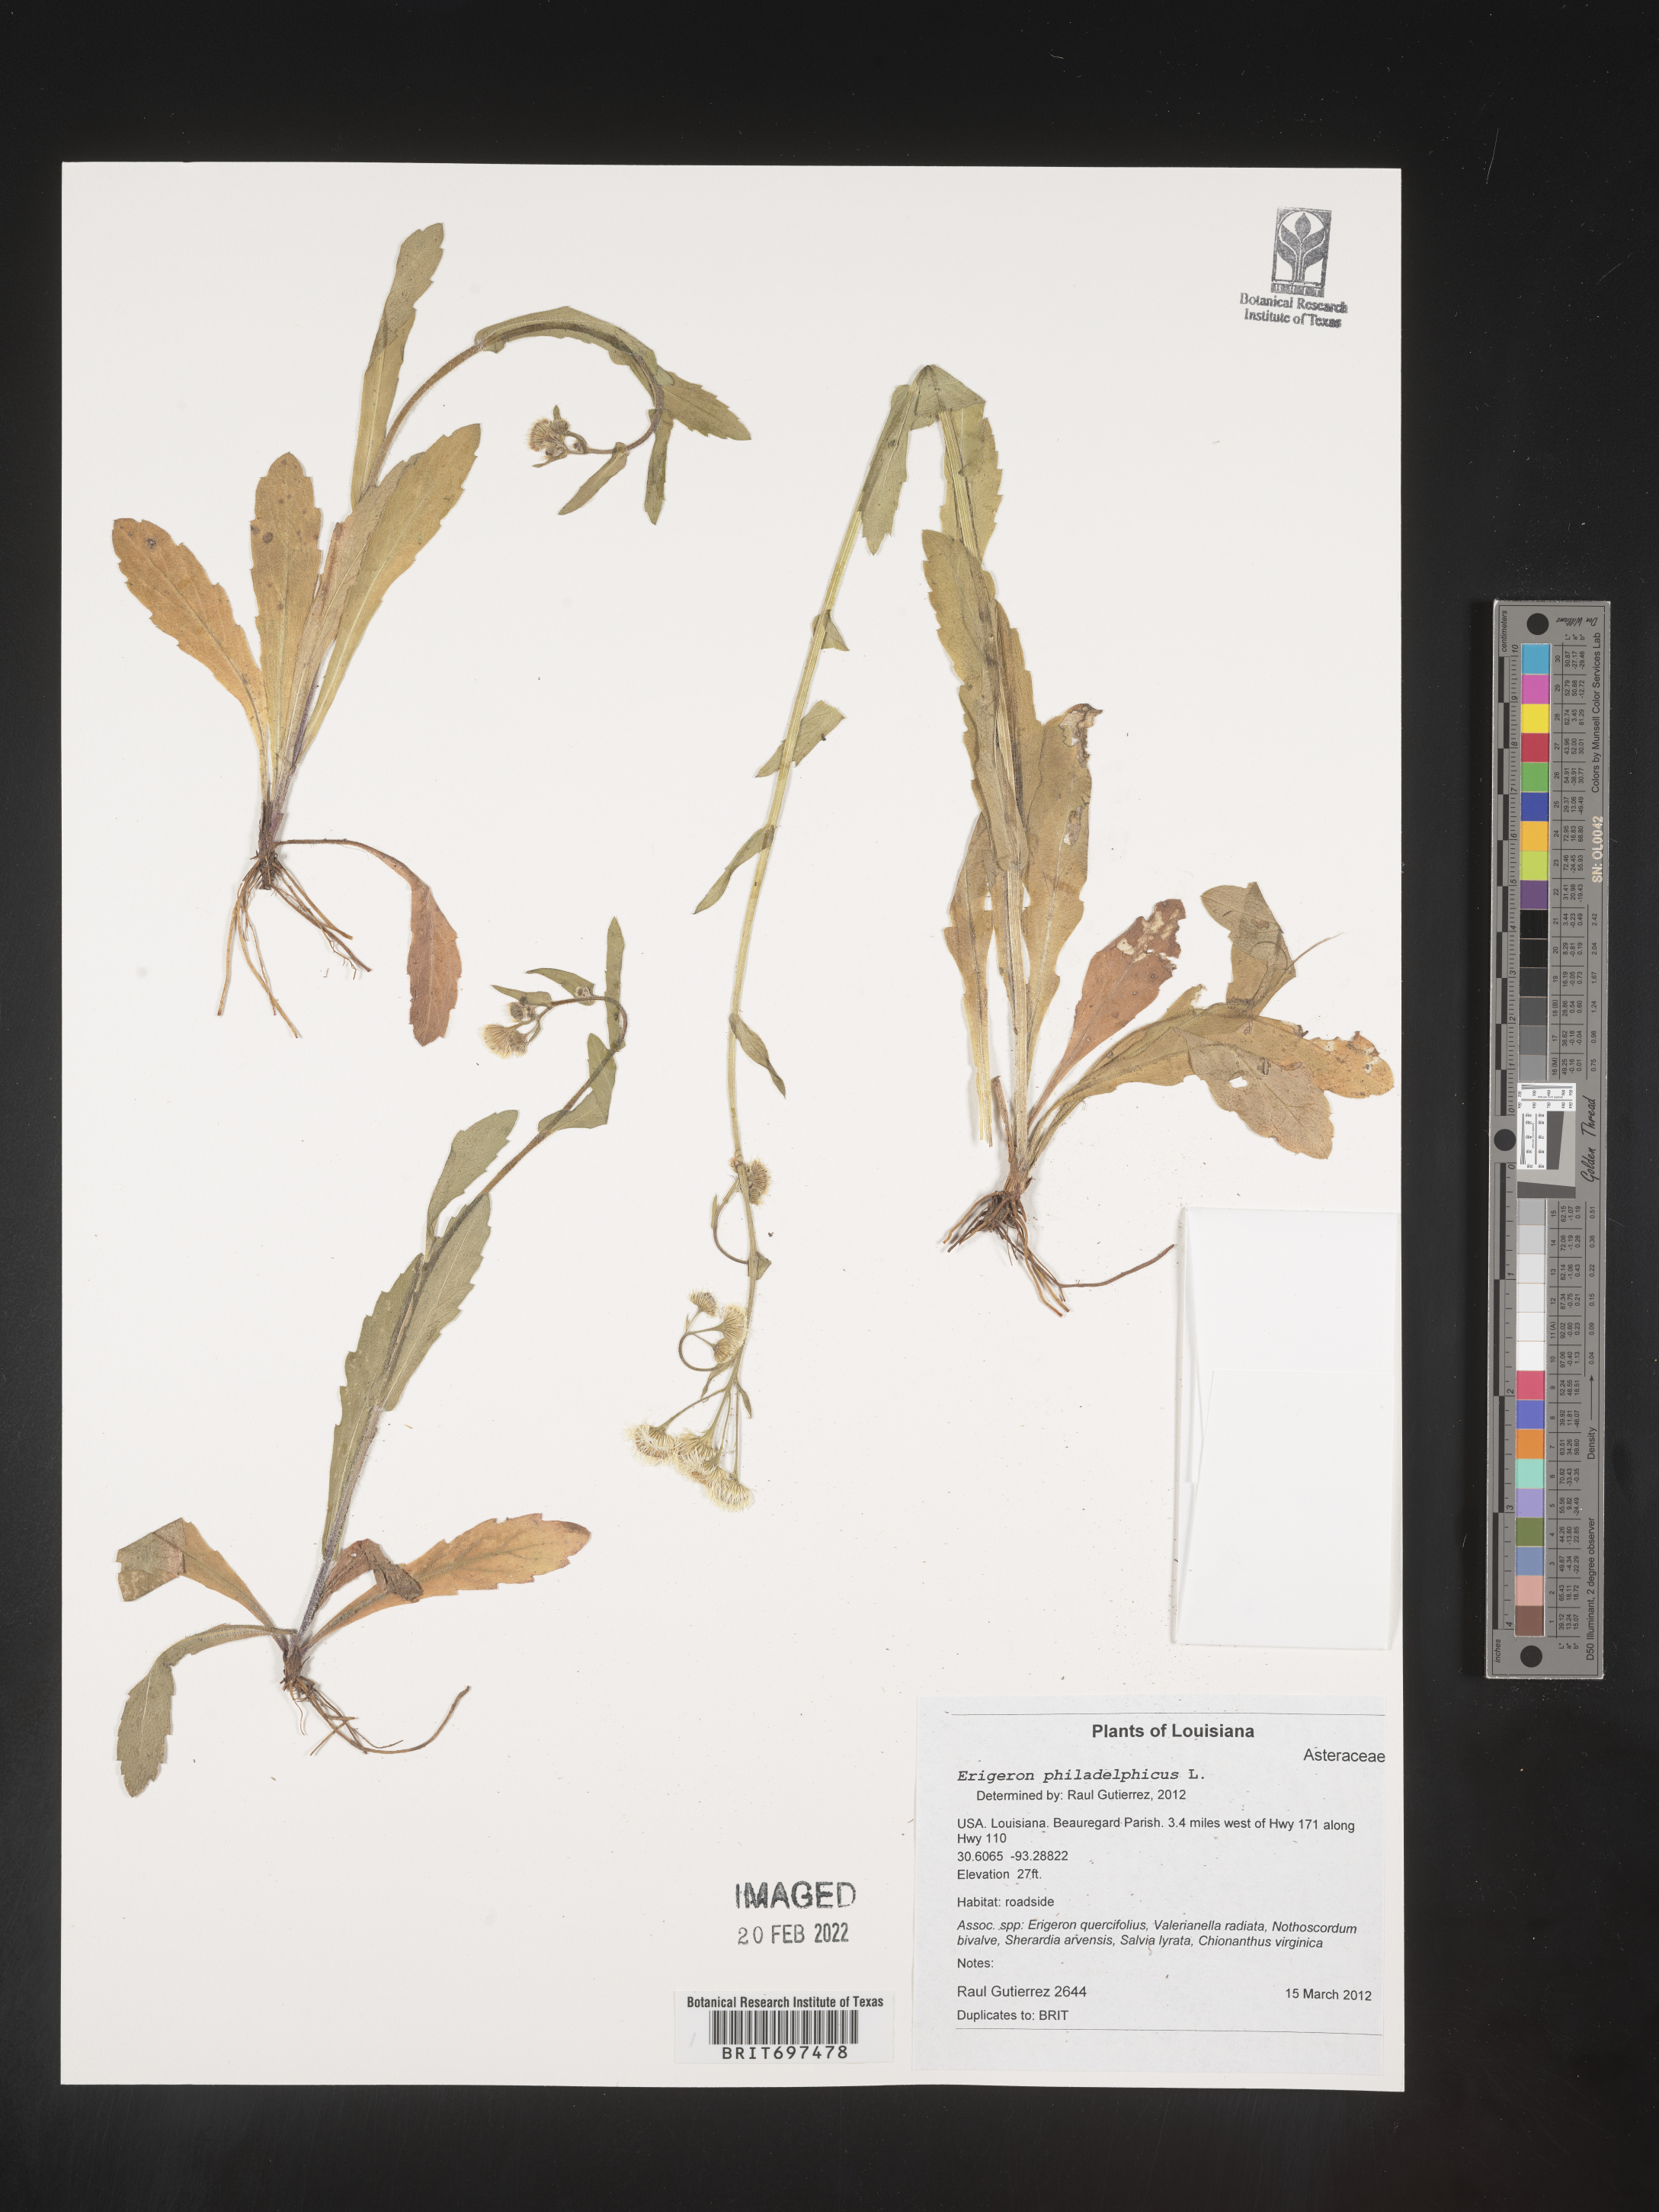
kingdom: Plantae
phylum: Tracheophyta
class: Magnoliopsida
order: Asterales
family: Asteraceae
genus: Erigeron
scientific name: Erigeron philadelphicus
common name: Robin's-plantain
